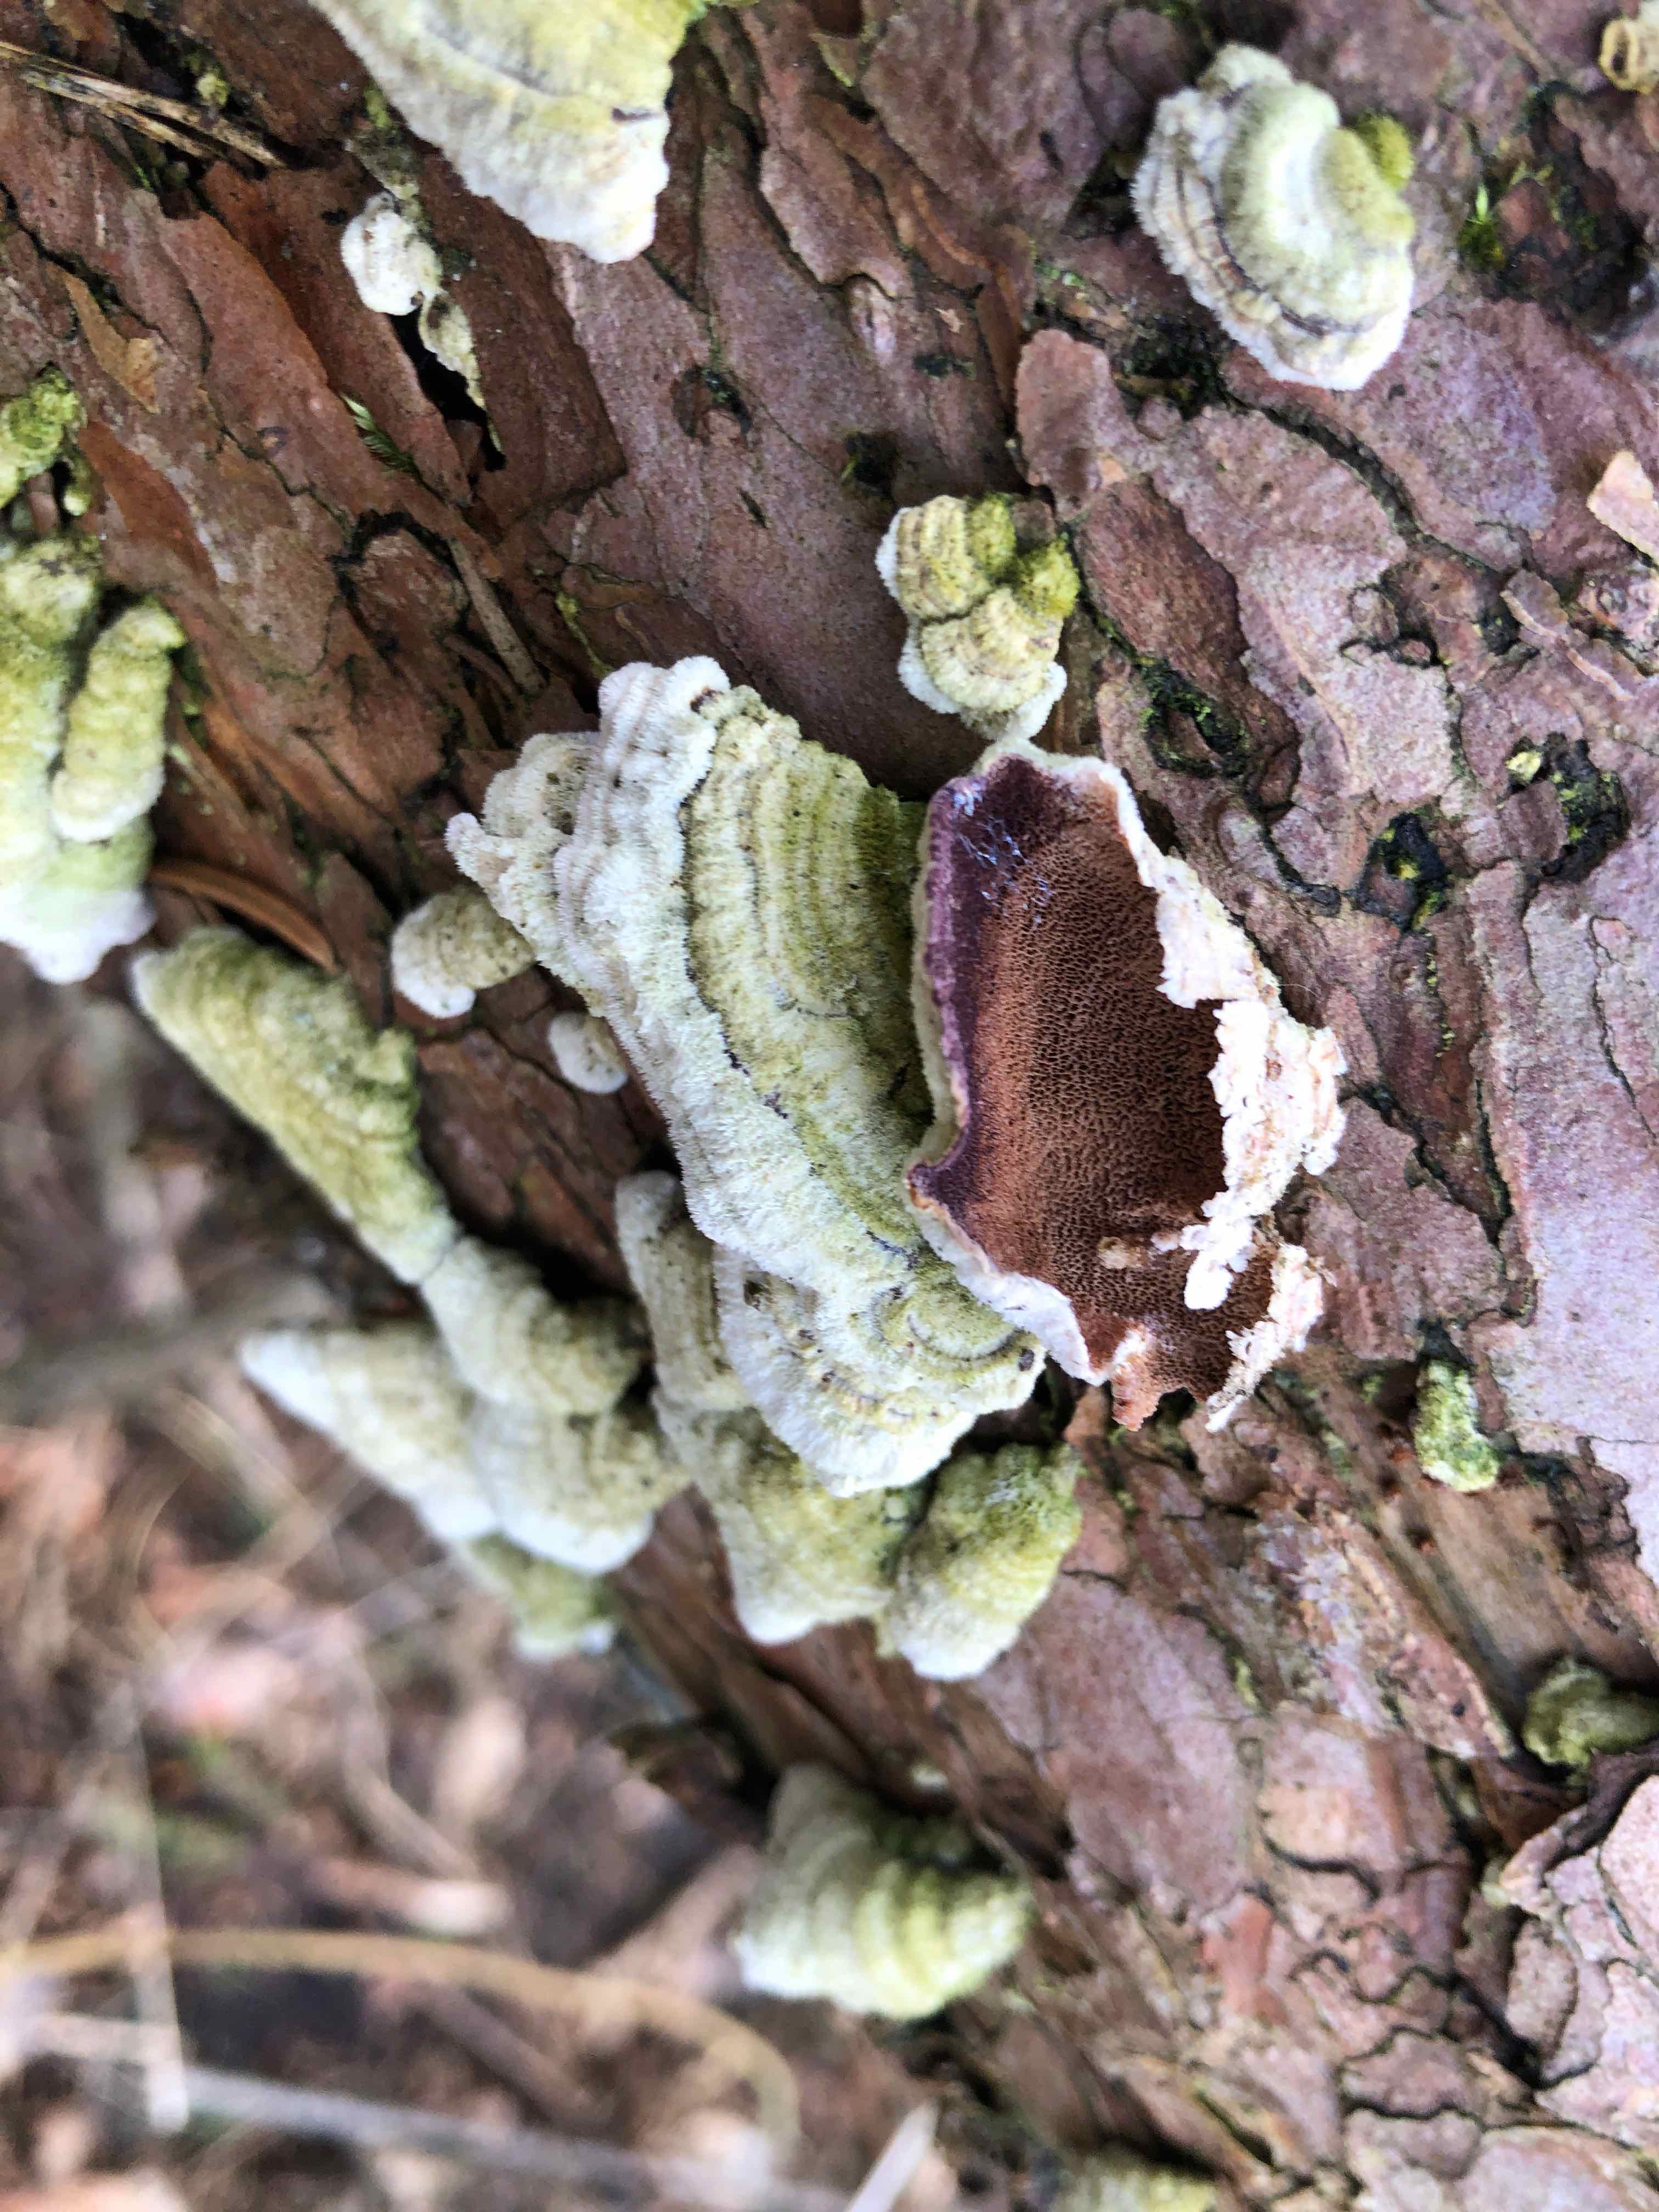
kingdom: Fungi
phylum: Basidiomycota
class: Agaricomycetes
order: Hymenochaetales
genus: Trichaptum
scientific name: Trichaptum abietinum
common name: almindelig violporesvamp
